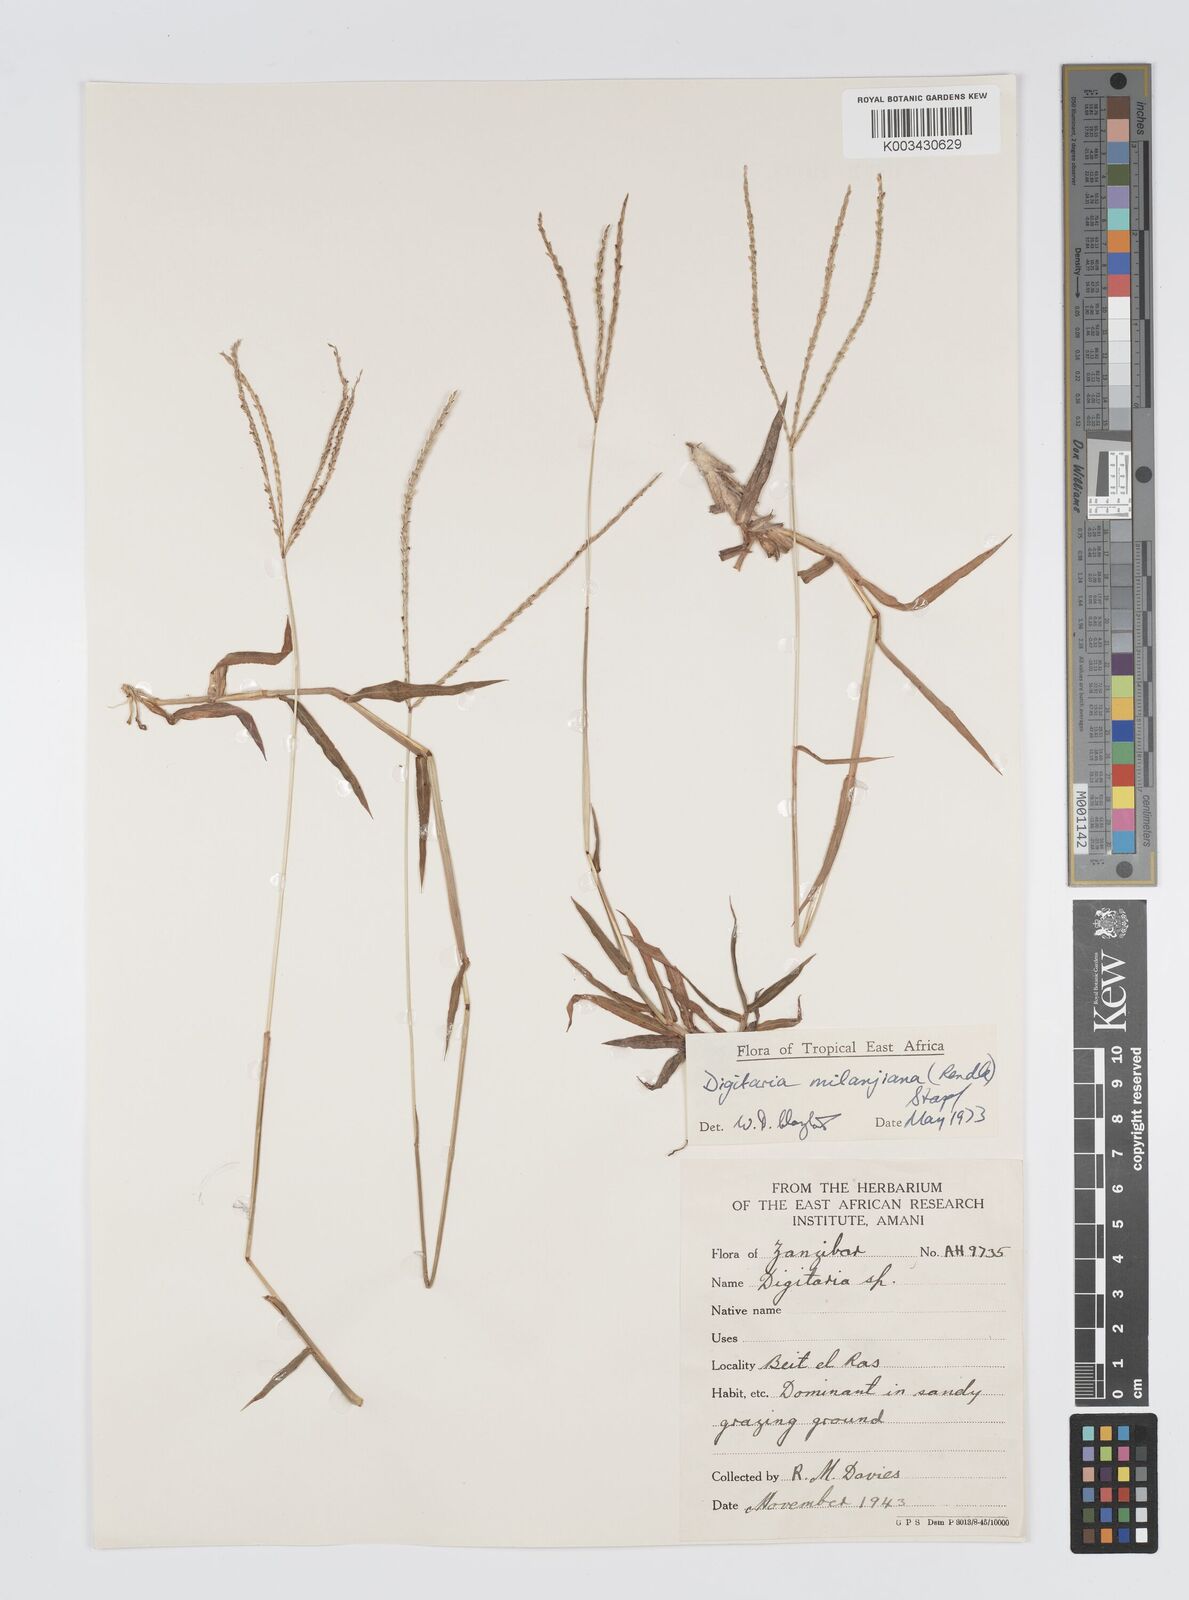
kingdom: Plantae
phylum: Tracheophyta
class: Liliopsida
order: Poales
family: Poaceae
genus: Digitaria
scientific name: Digitaria milanjiana
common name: Madagascar crabgrass
